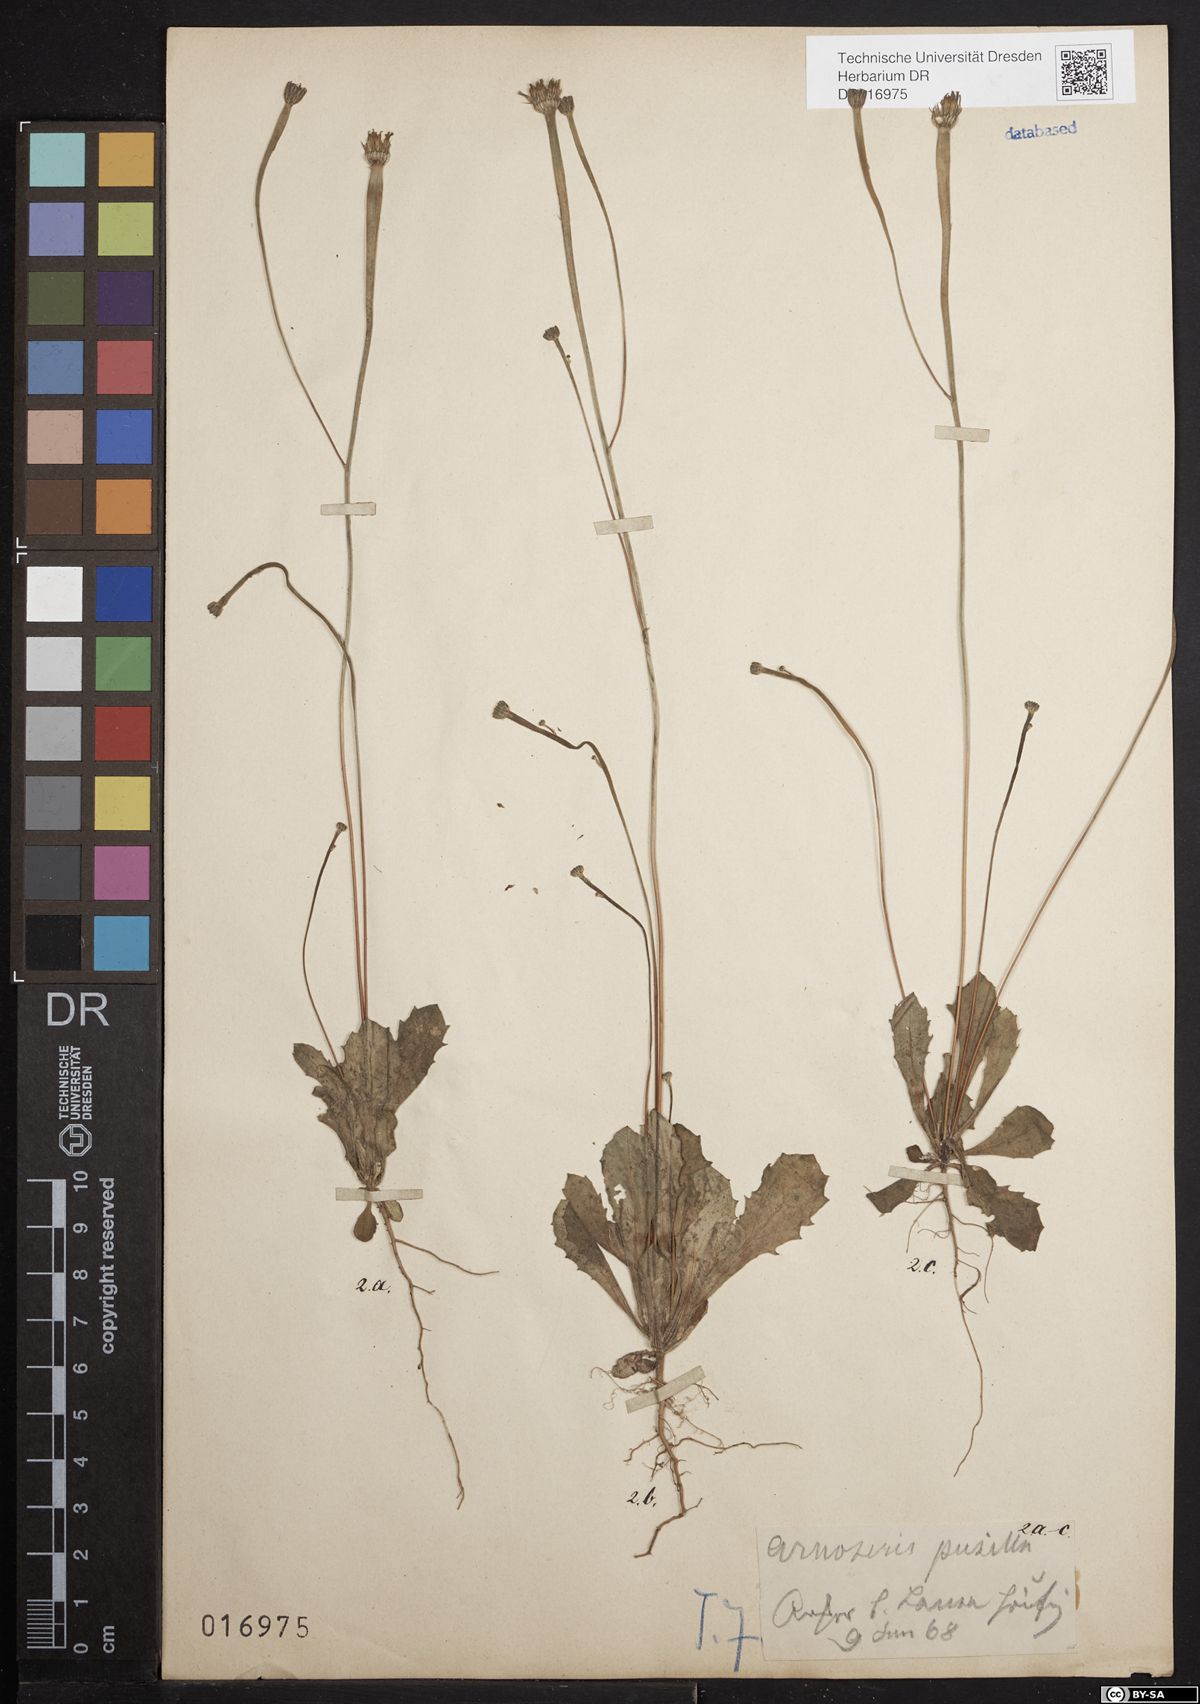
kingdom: Plantae
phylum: Tracheophyta
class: Magnoliopsida
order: Asterales
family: Asteraceae
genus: Arnoseris
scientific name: Arnoseris minima
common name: Lamb's succory
